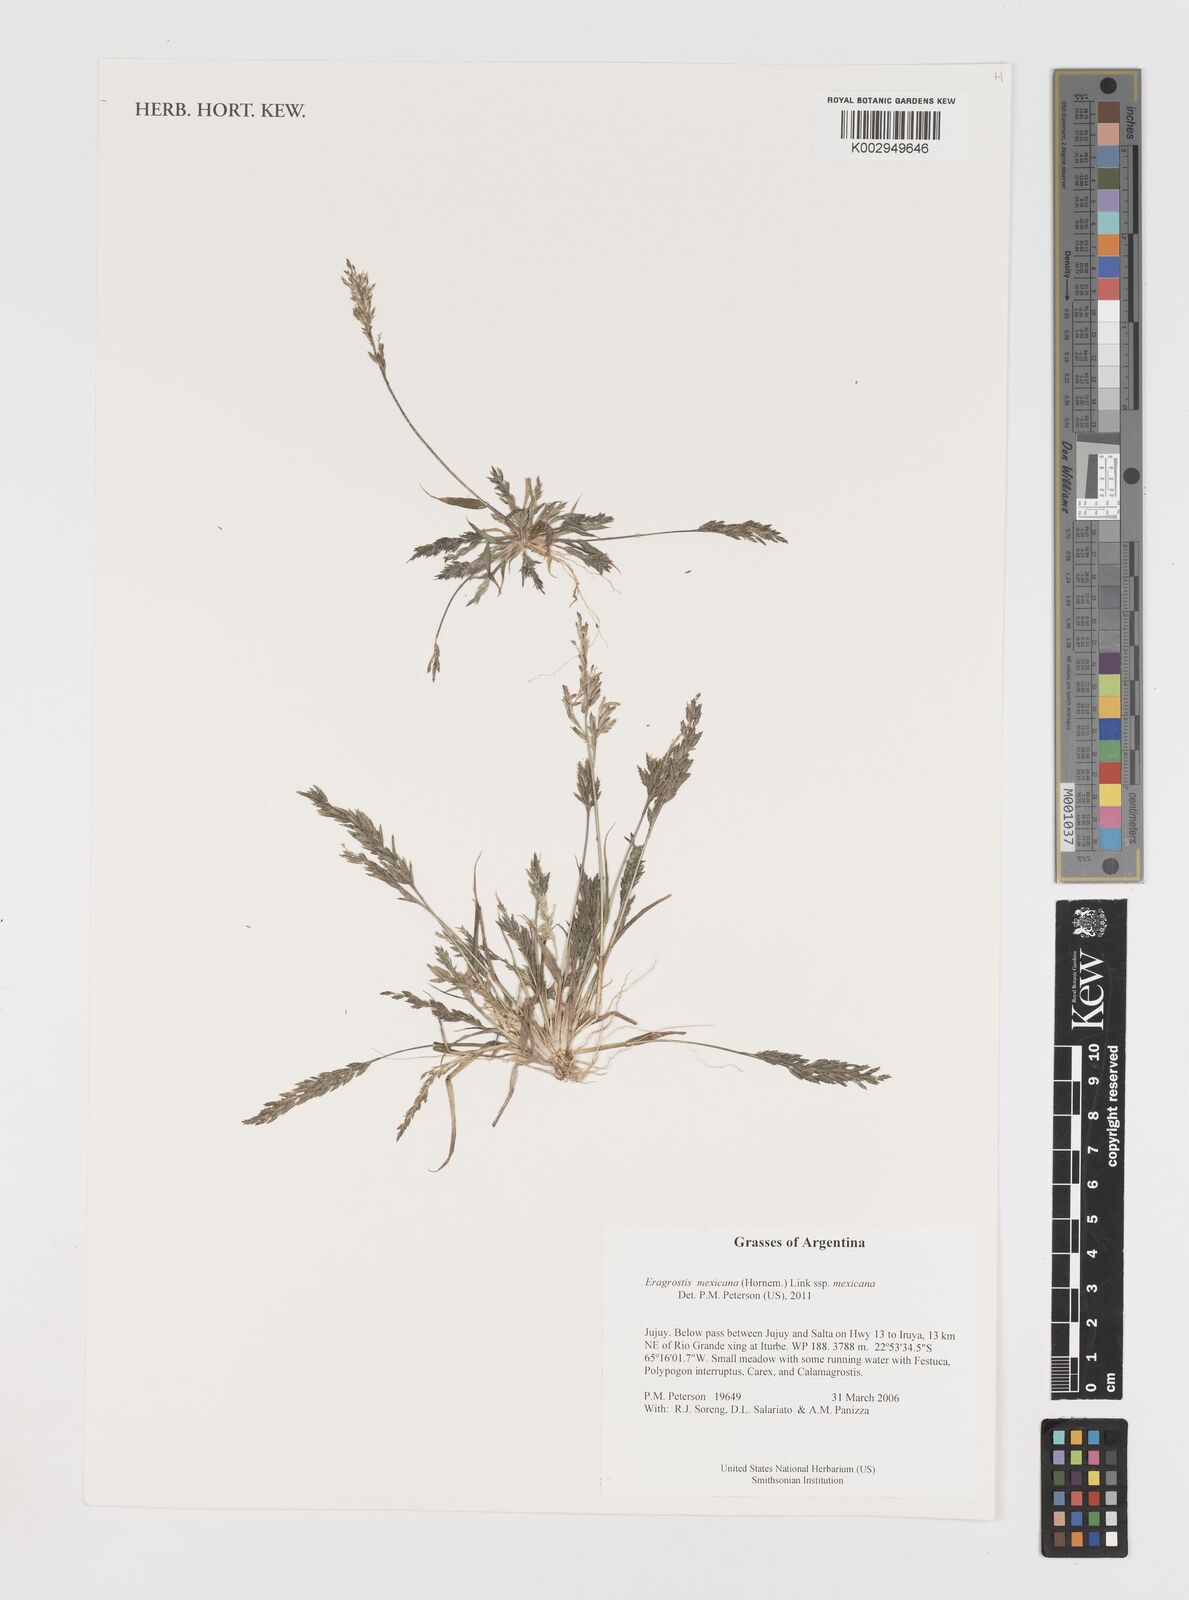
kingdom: Plantae
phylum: Tracheophyta
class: Liliopsida
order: Poales
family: Poaceae
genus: Eragrostis
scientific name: Eragrostis mexicana
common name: Mexican love grass
